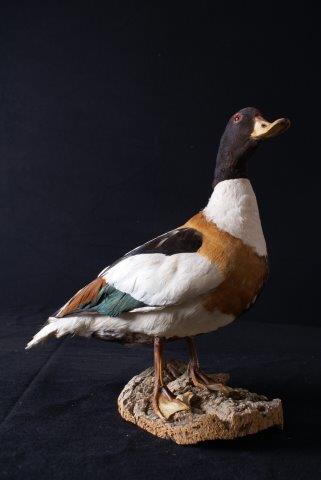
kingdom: Animalia
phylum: Chordata
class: Aves
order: Anseriformes
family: Anatidae
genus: Tadorna
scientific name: Tadorna tadorna
